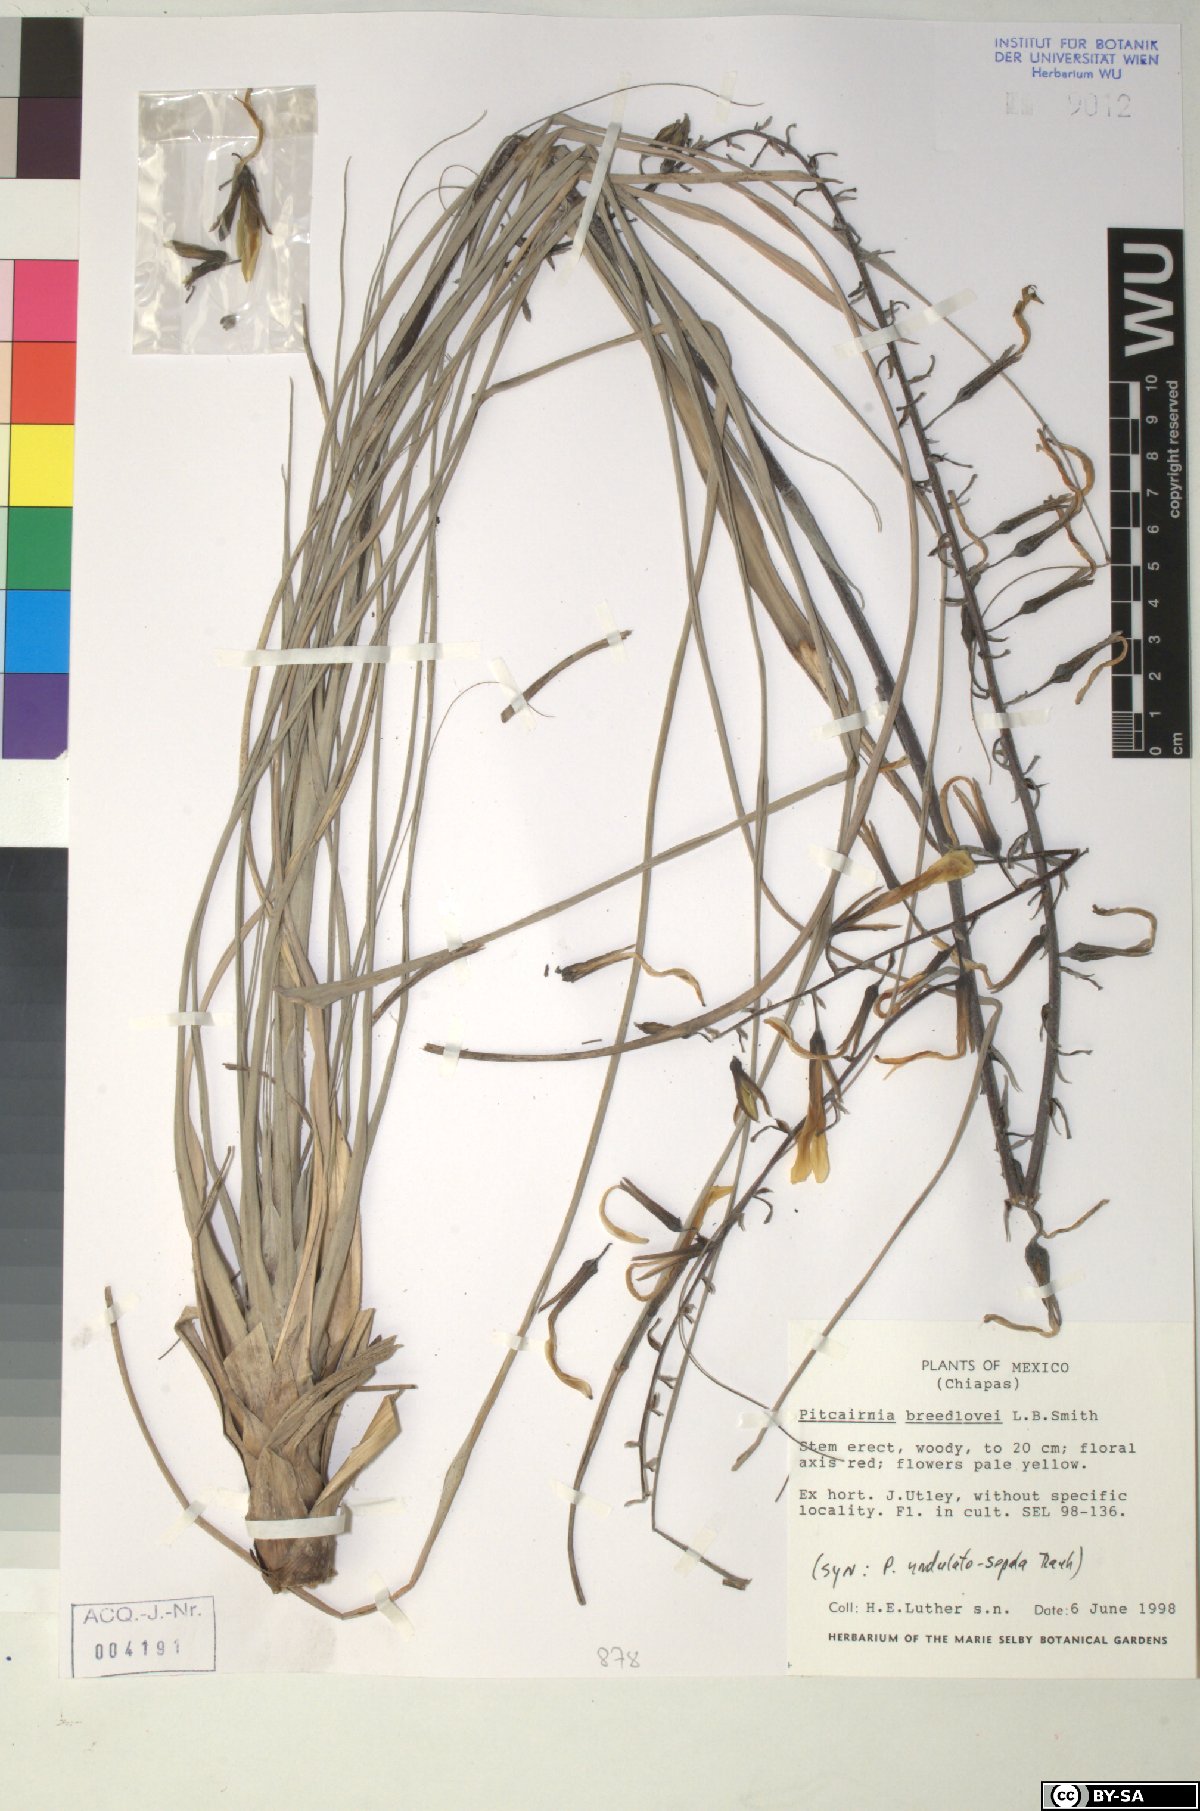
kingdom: Plantae
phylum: Tracheophyta
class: Liliopsida
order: Poales
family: Bromeliaceae
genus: Pitcairnia
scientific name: Pitcairnia breedlovei
